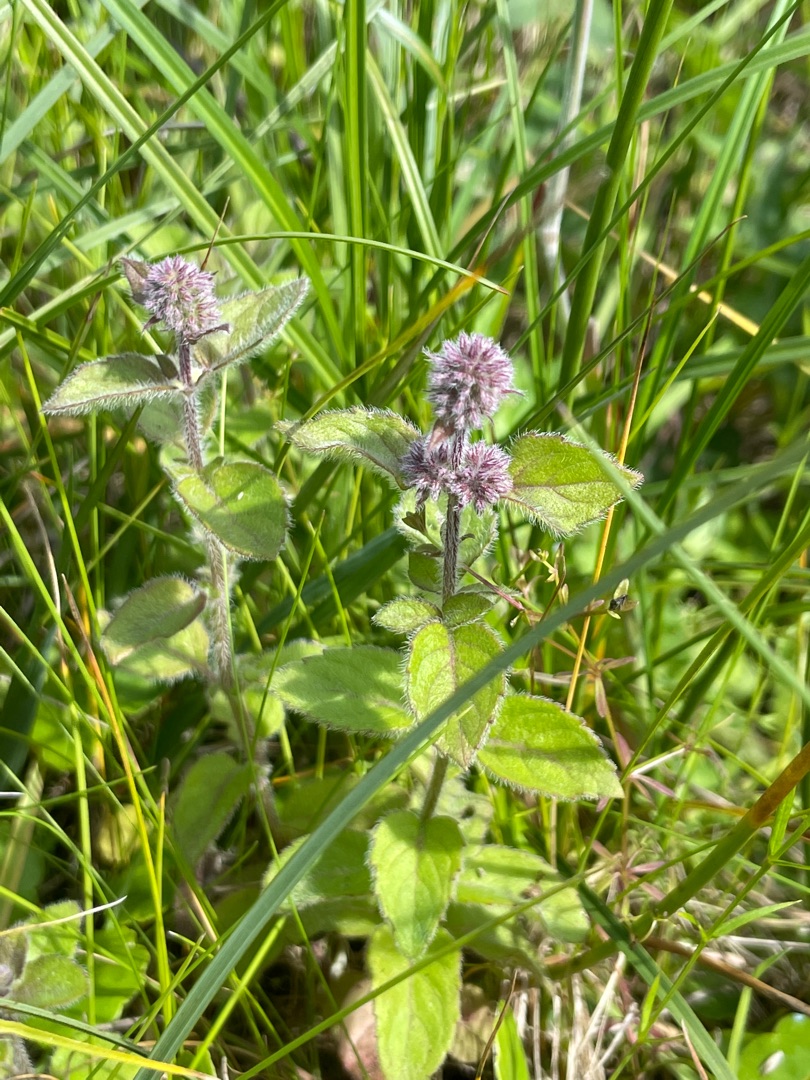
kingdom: Plantae
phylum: Tracheophyta
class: Magnoliopsida
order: Lamiales
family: Lamiaceae
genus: Mentha
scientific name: Mentha aquatica
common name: Vand-mynte
